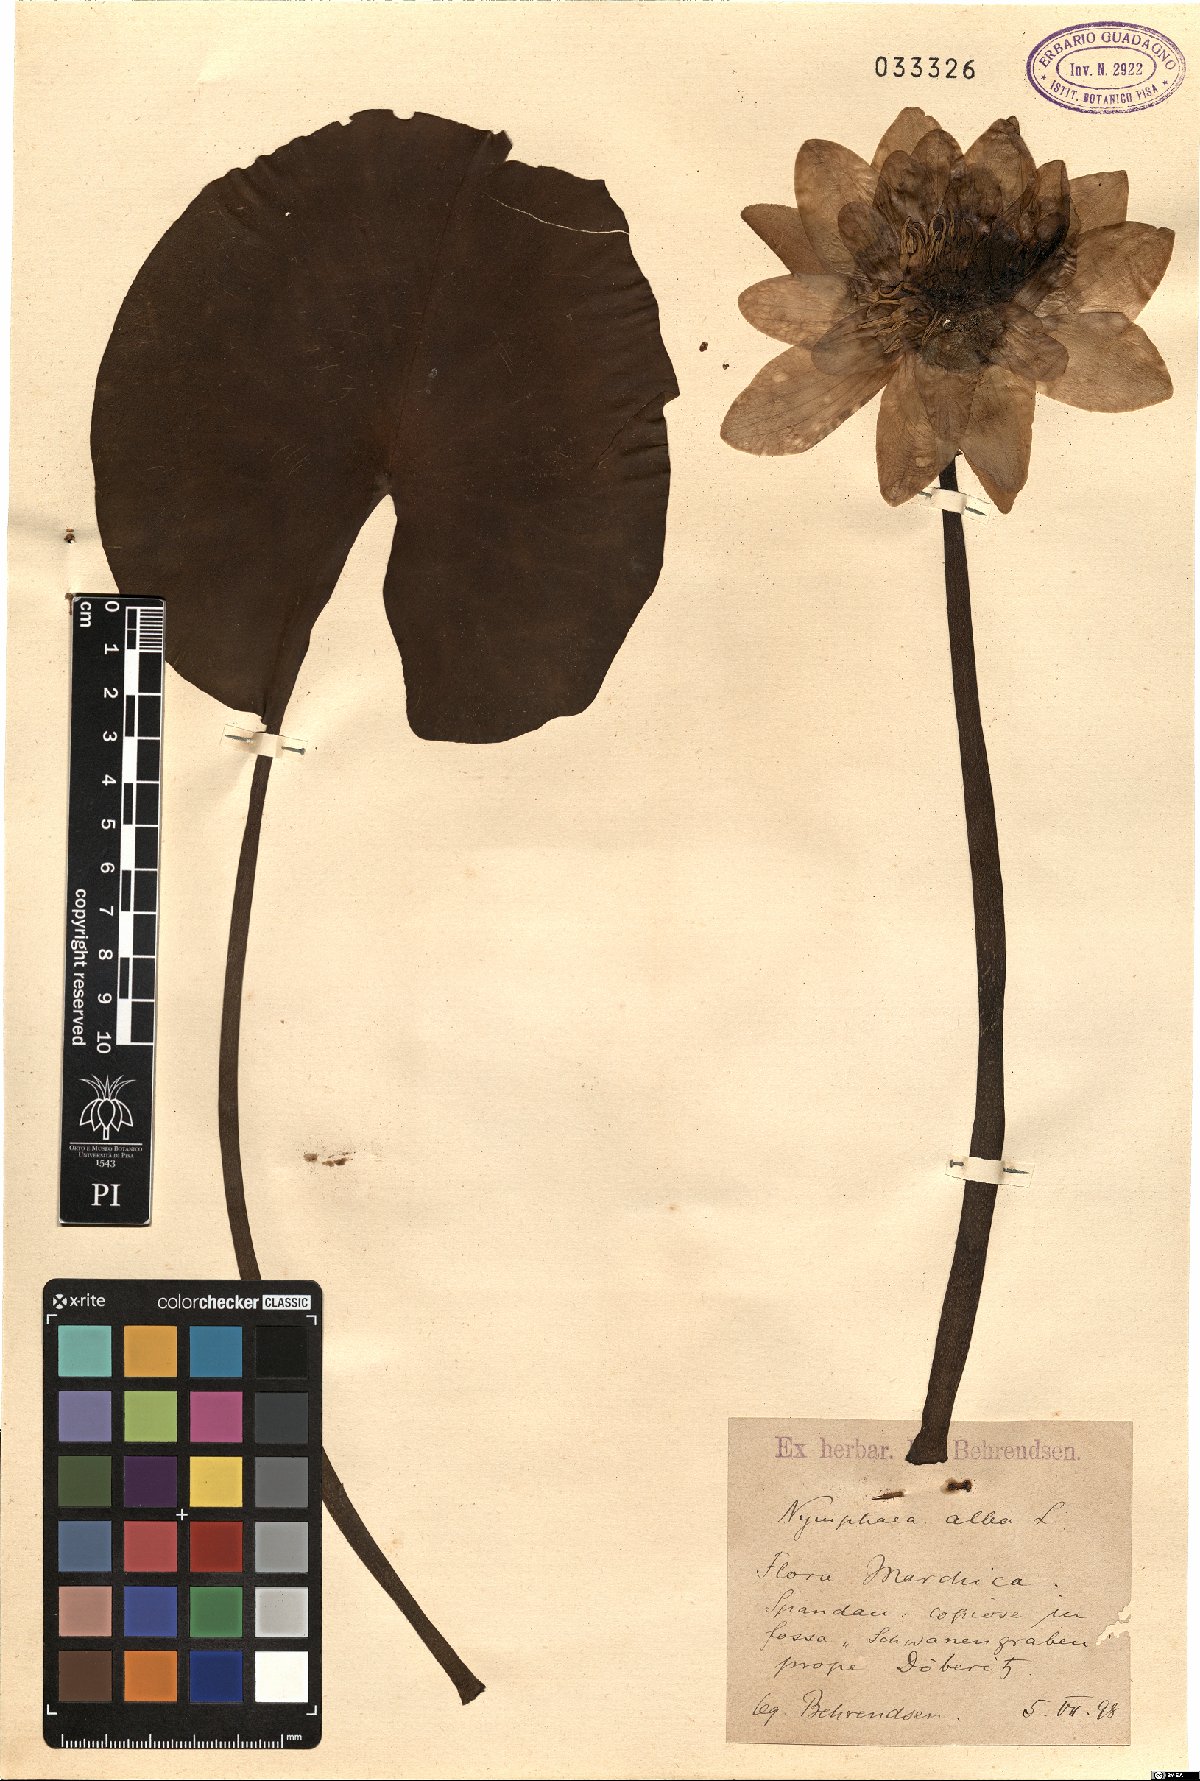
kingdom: Plantae
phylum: Tracheophyta
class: Magnoliopsida
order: Nymphaeales
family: Nymphaeaceae
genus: Nymphaea
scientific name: Nymphaea alba
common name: White water-lily
